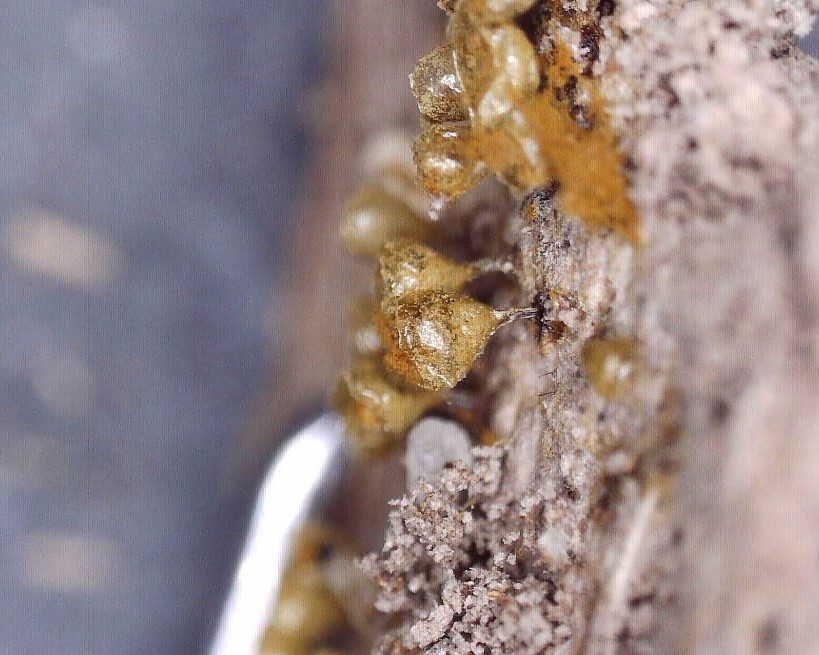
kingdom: Protozoa
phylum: Mycetozoa
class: Myxomycetes
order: Trichiales
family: Trichiaceae
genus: Trichia
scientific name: Trichia crateriformis
